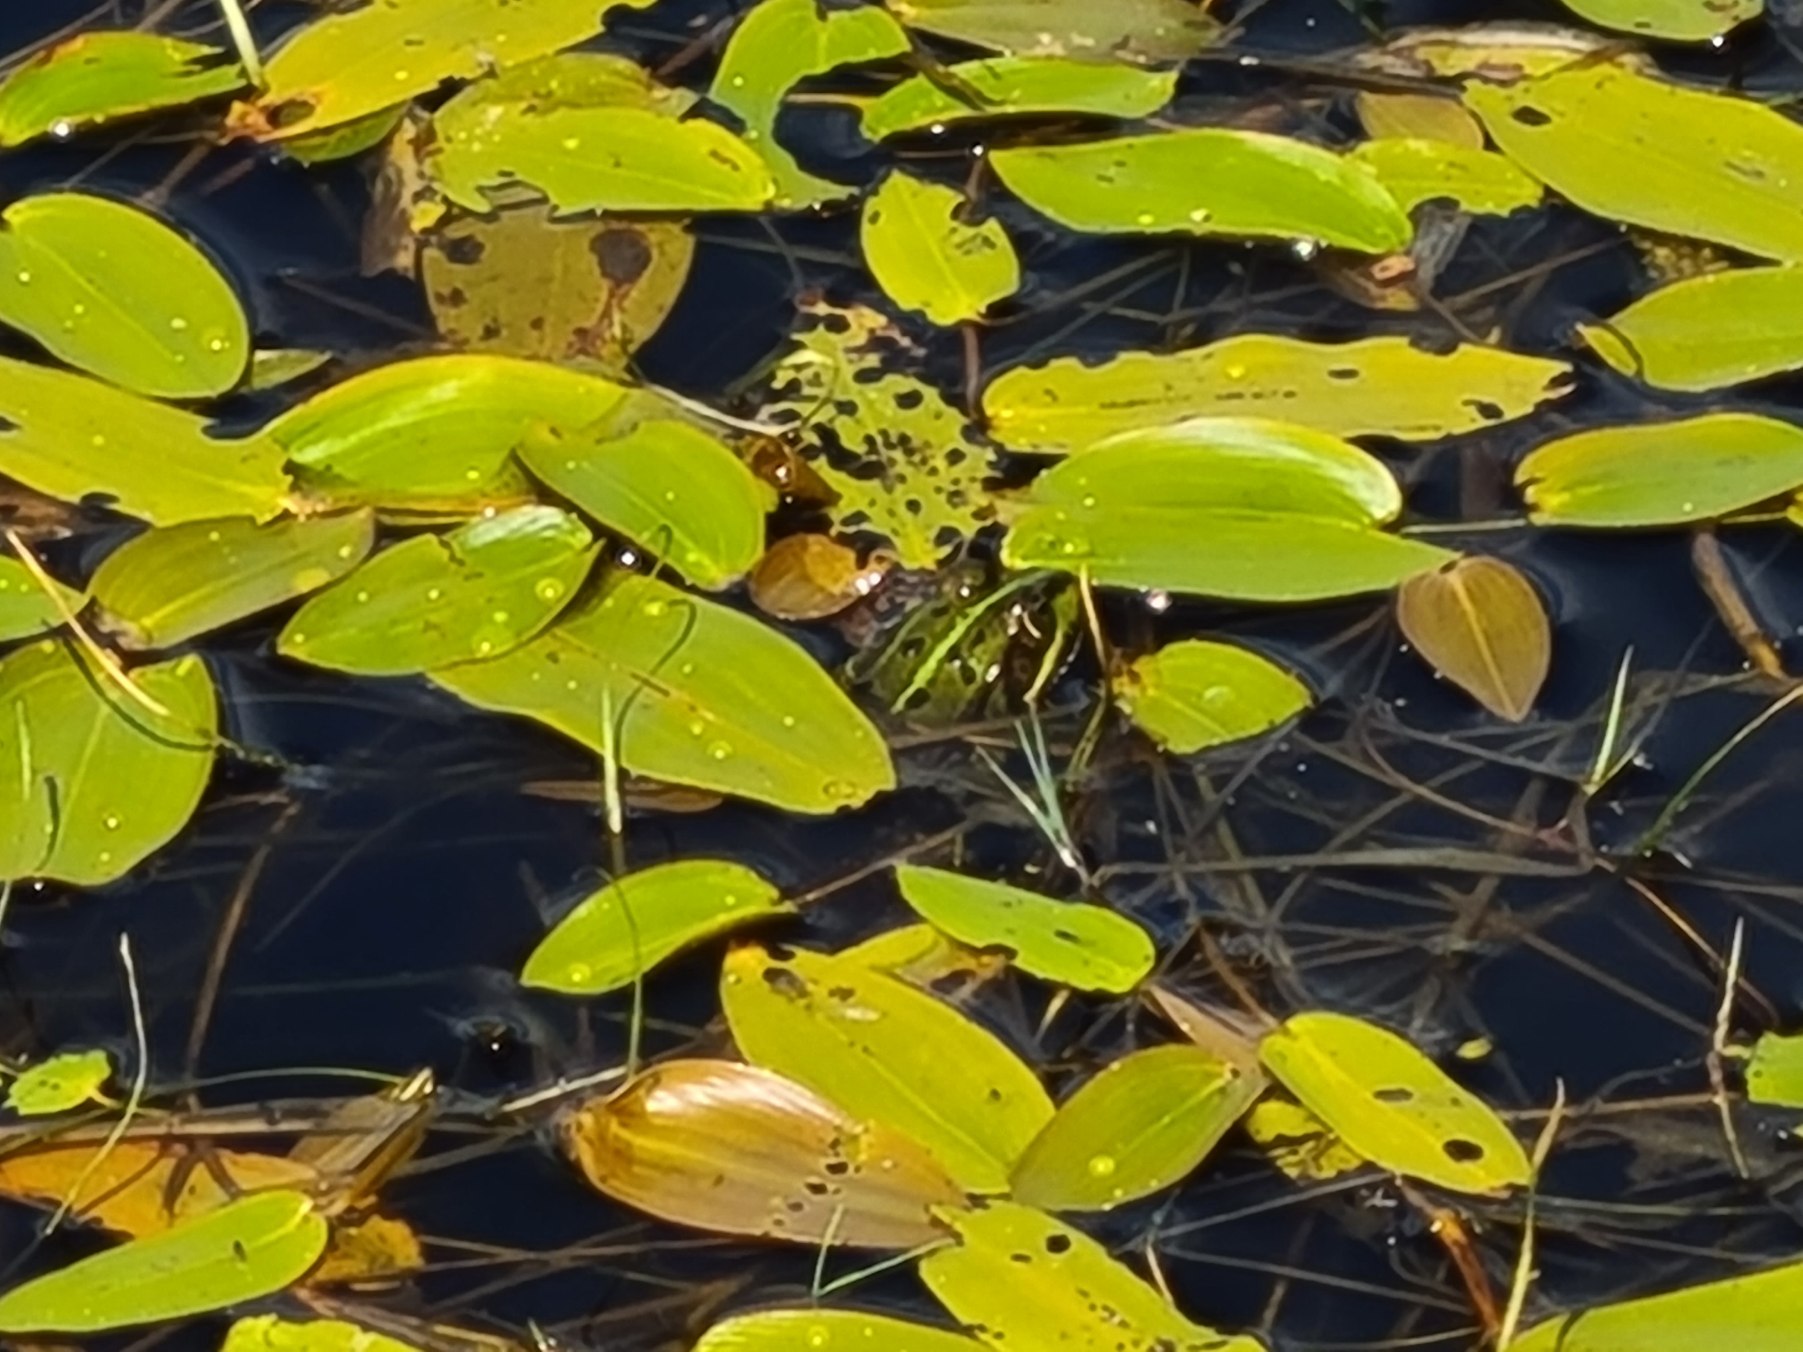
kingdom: Animalia
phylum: Chordata
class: Amphibia
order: Anura
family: Ranidae
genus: Pelophylax
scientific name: Pelophylax lessonae
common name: Grøn frø
